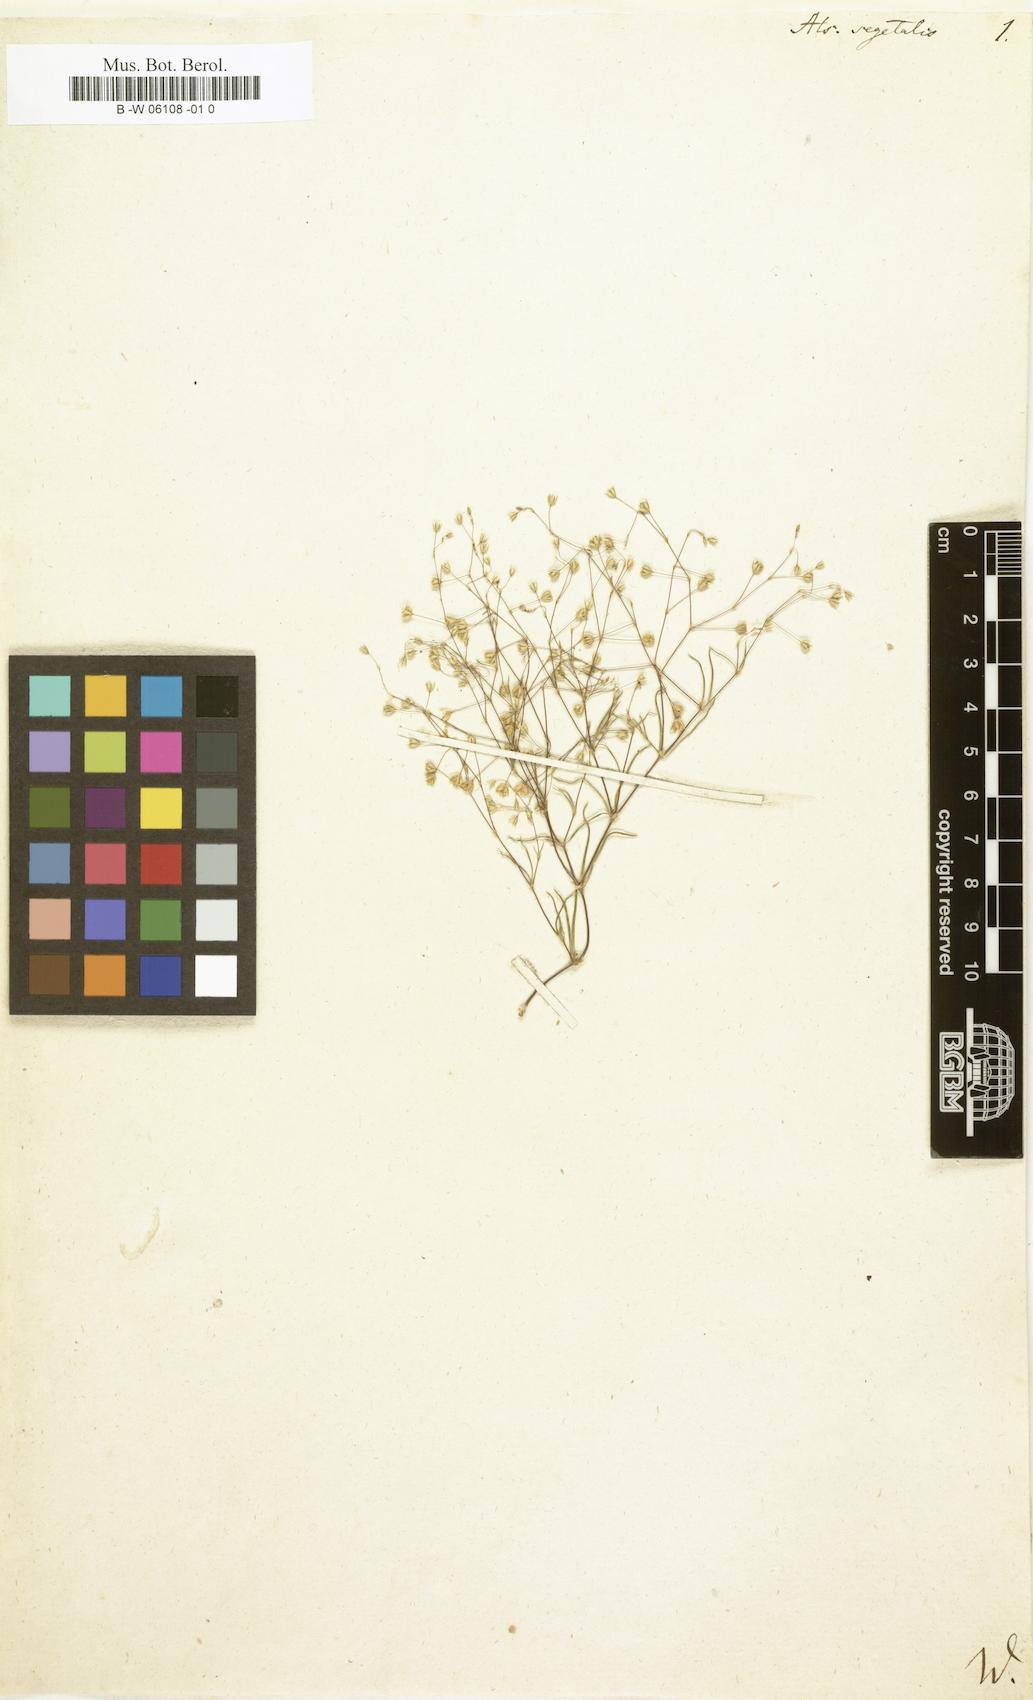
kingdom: Plantae
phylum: Tracheophyta
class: Magnoliopsida
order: Caryophyllales
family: Caryophyllaceae
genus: Spergularia
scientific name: Spergularia segetalis
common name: Corn sand spurrey
